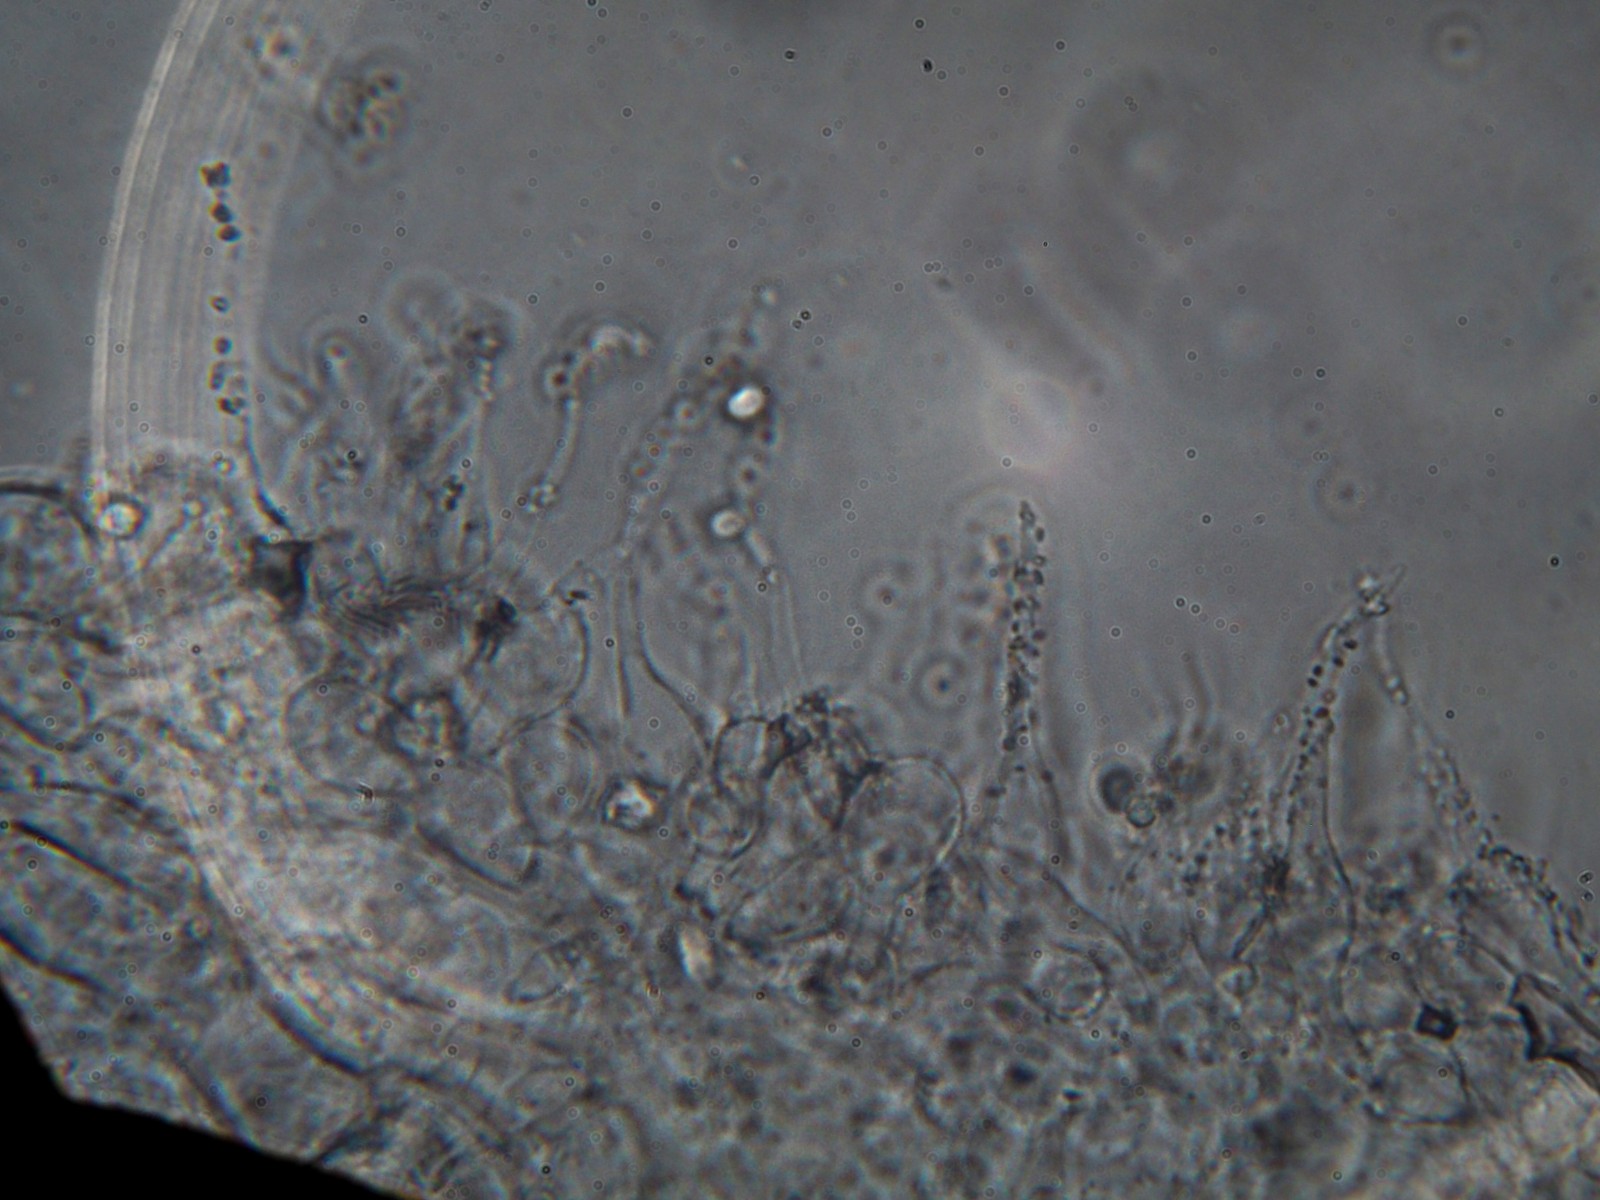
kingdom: Fungi
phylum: Basidiomycota
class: Agaricomycetes
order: Agaricales
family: Mycenaceae
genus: Mycena
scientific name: Mycena tenerrima
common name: pudret huesvamp
